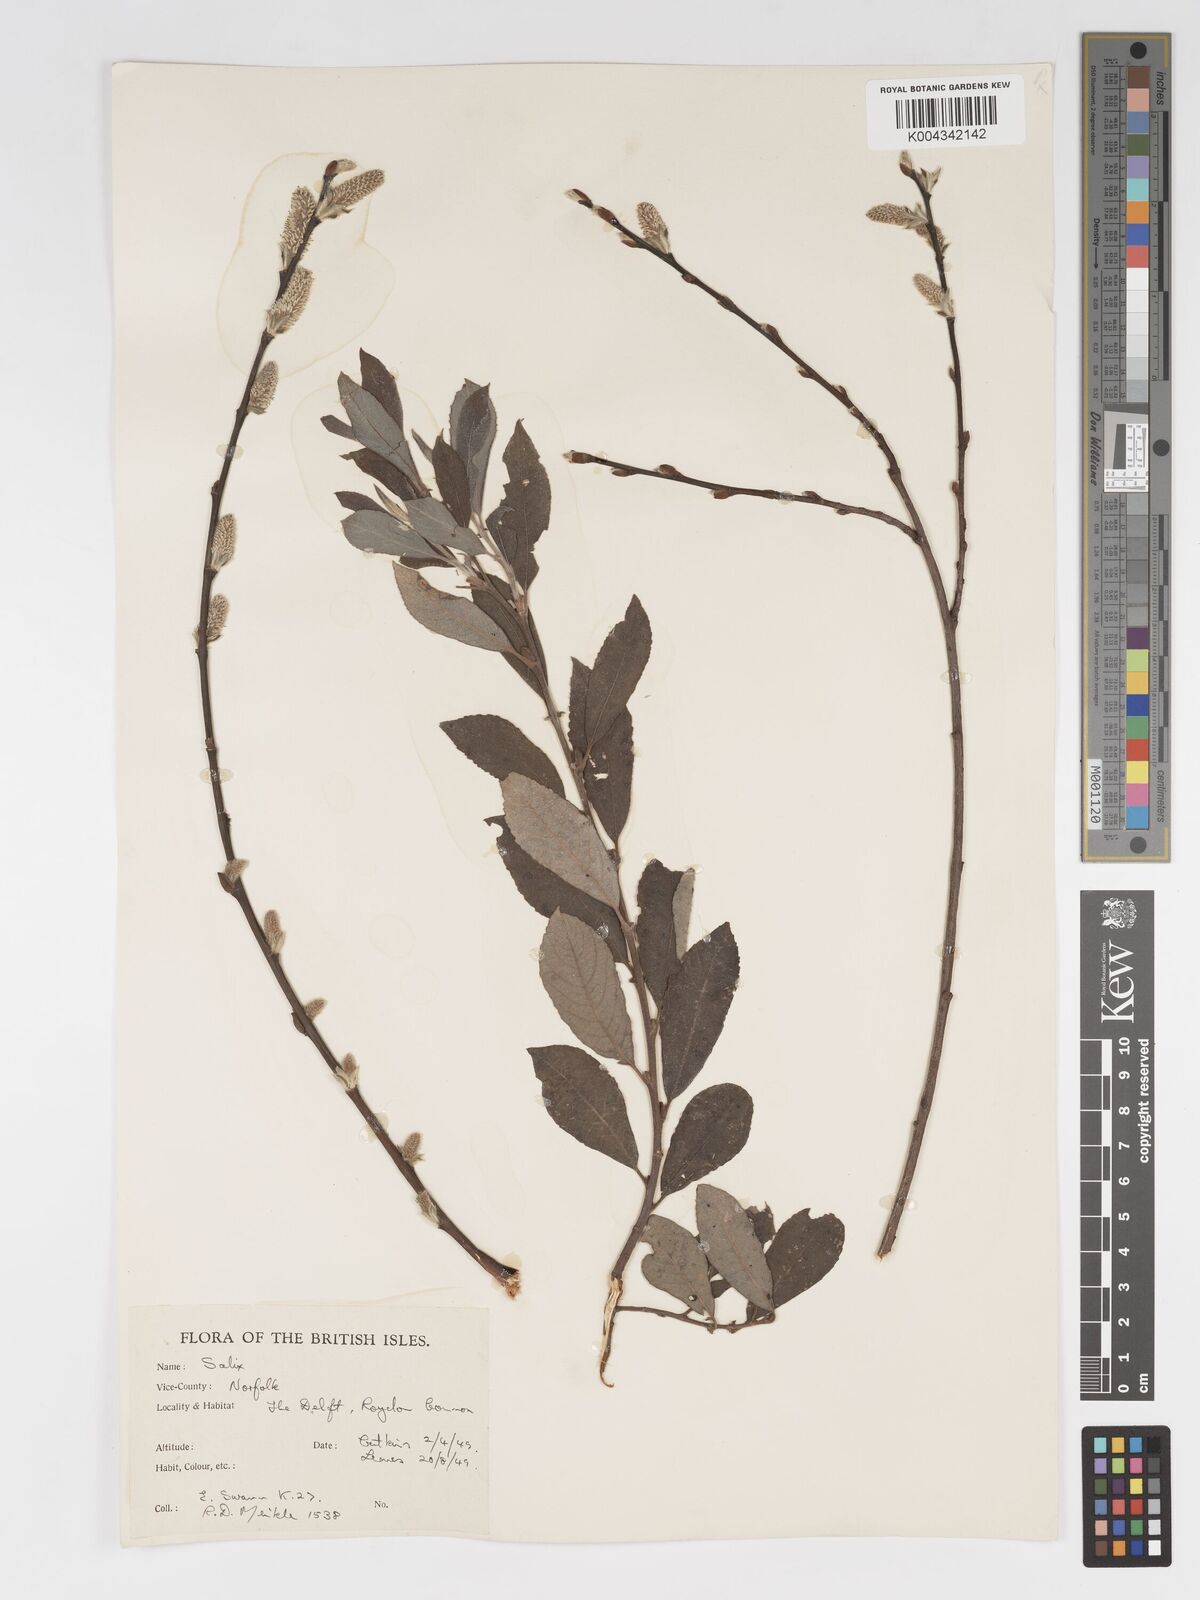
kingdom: Plantae
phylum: Tracheophyta
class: Magnoliopsida
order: Malpighiales
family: Salicaceae
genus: Salix
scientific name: Salix
